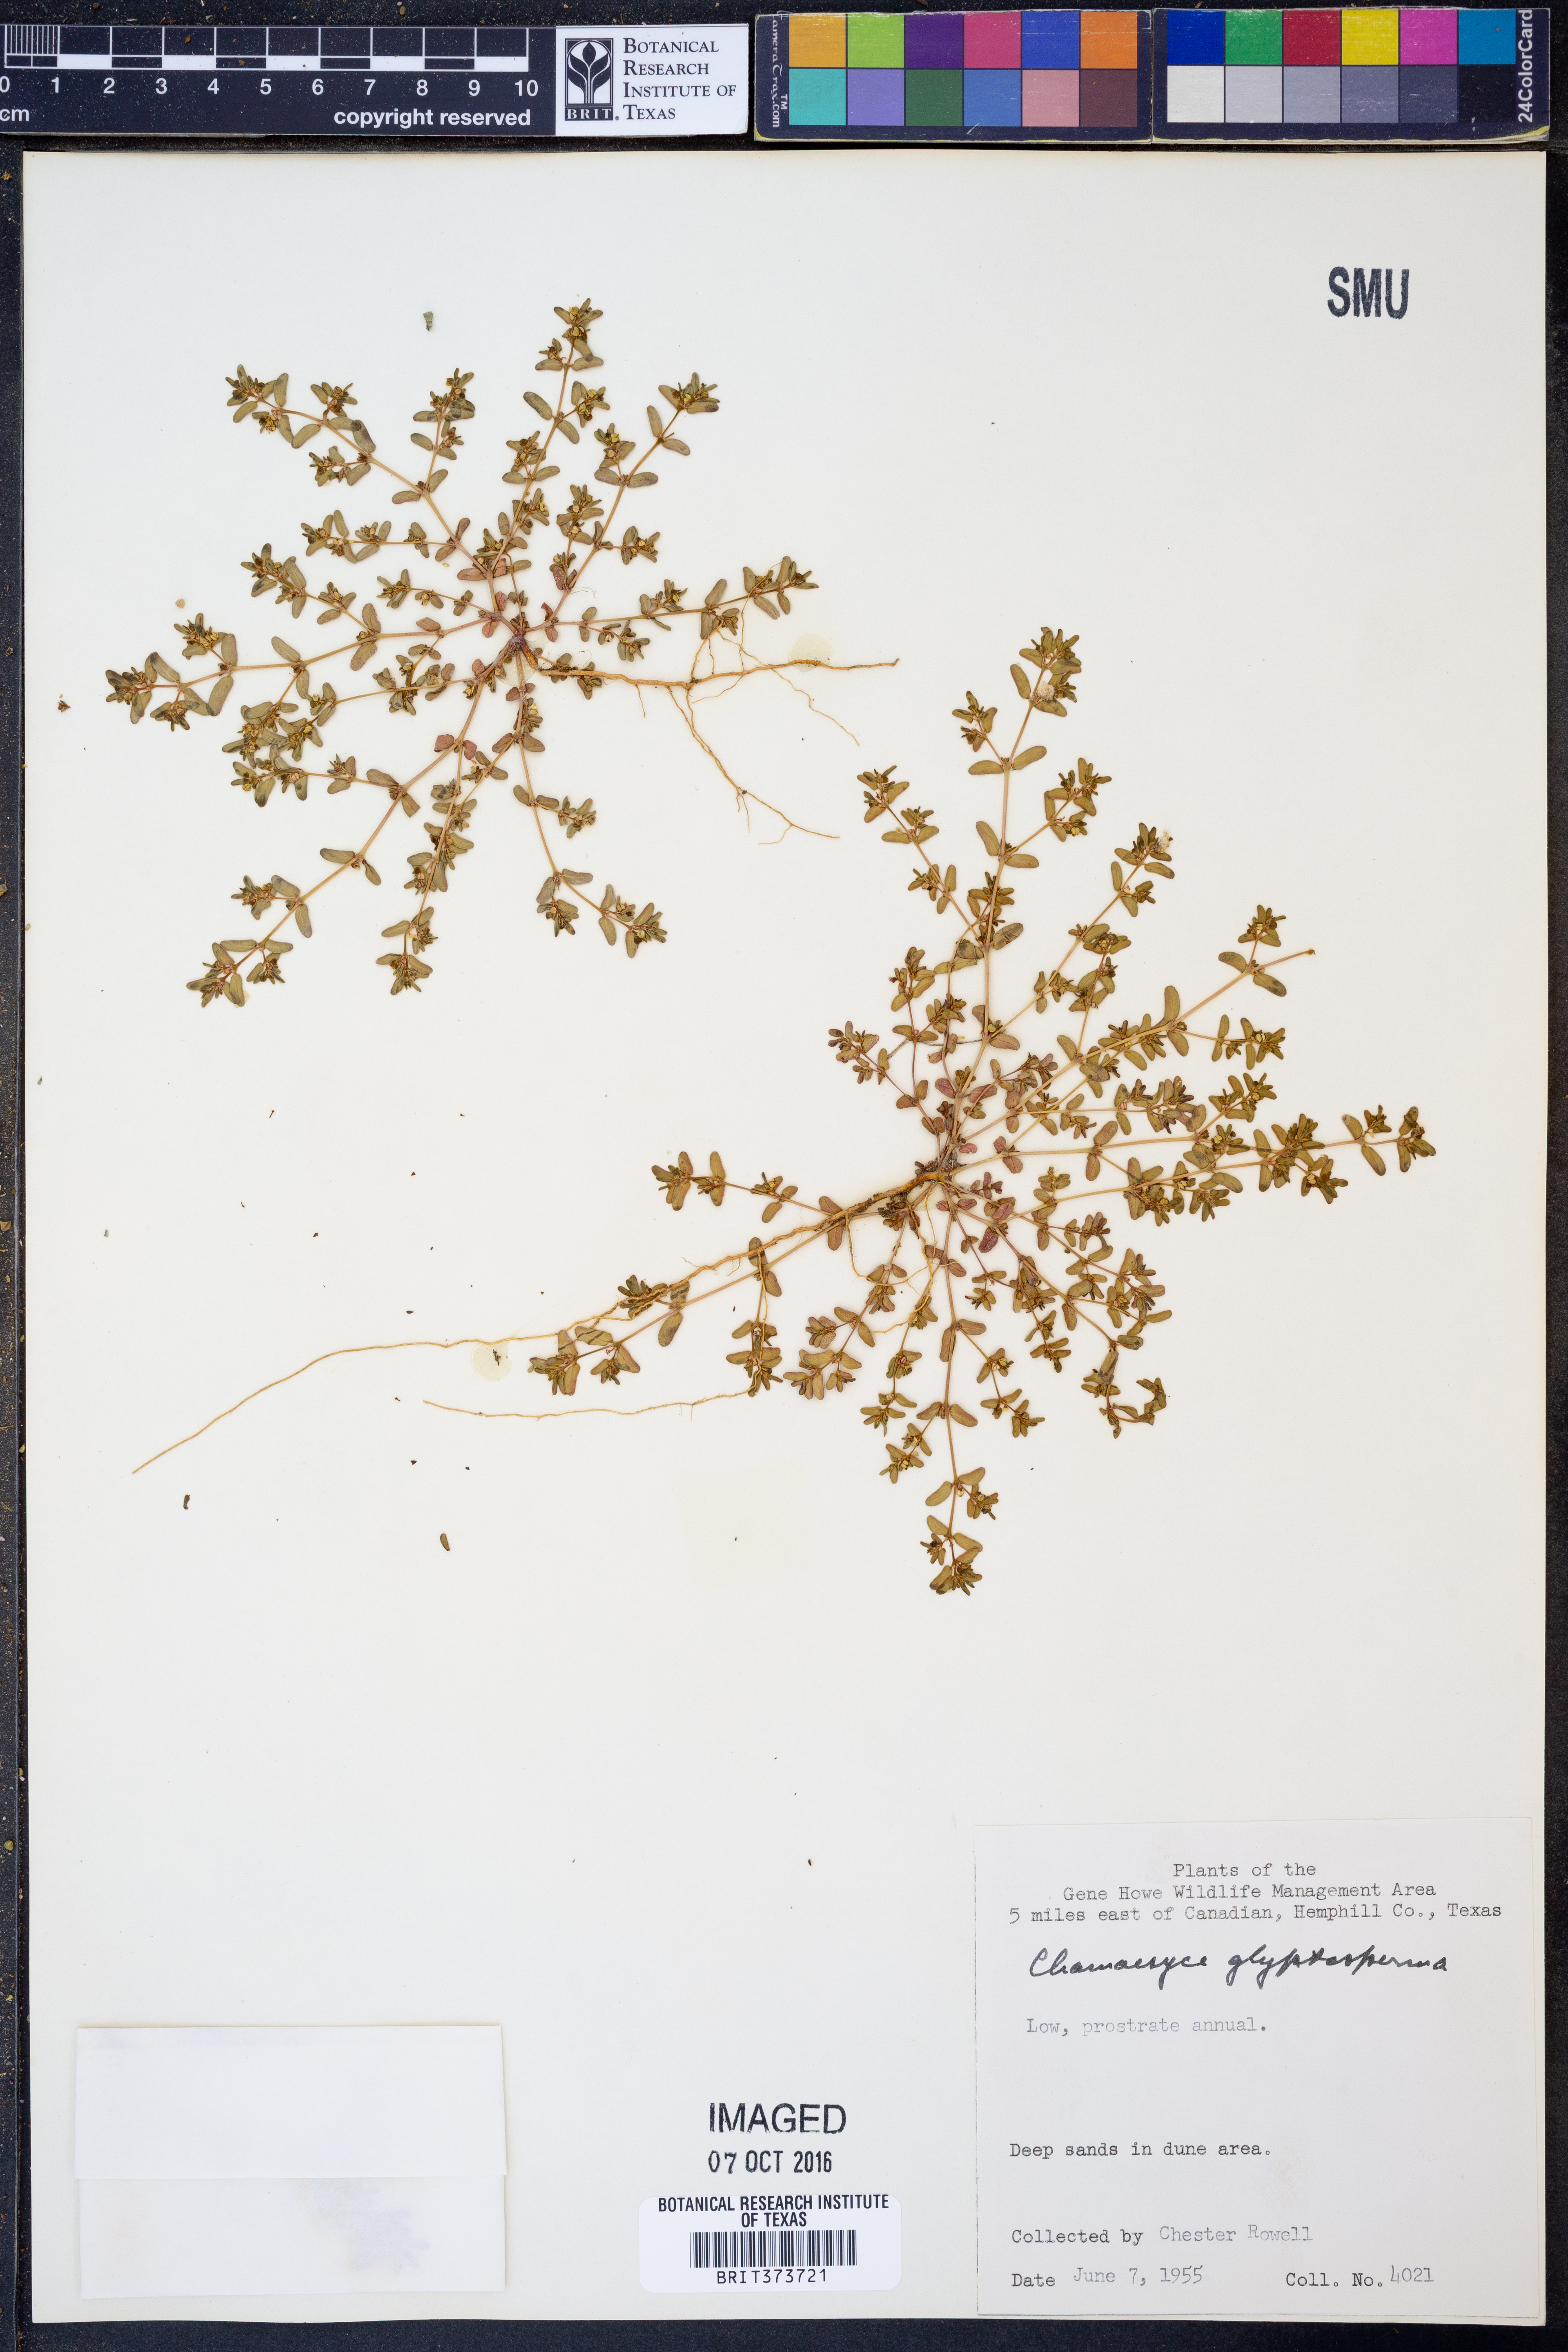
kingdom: Plantae
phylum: Tracheophyta
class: Magnoliopsida
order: Malpighiales
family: Euphorbiaceae
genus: Euphorbia
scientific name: Euphorbia glyptosperma
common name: Corrugate-seeded spurge
